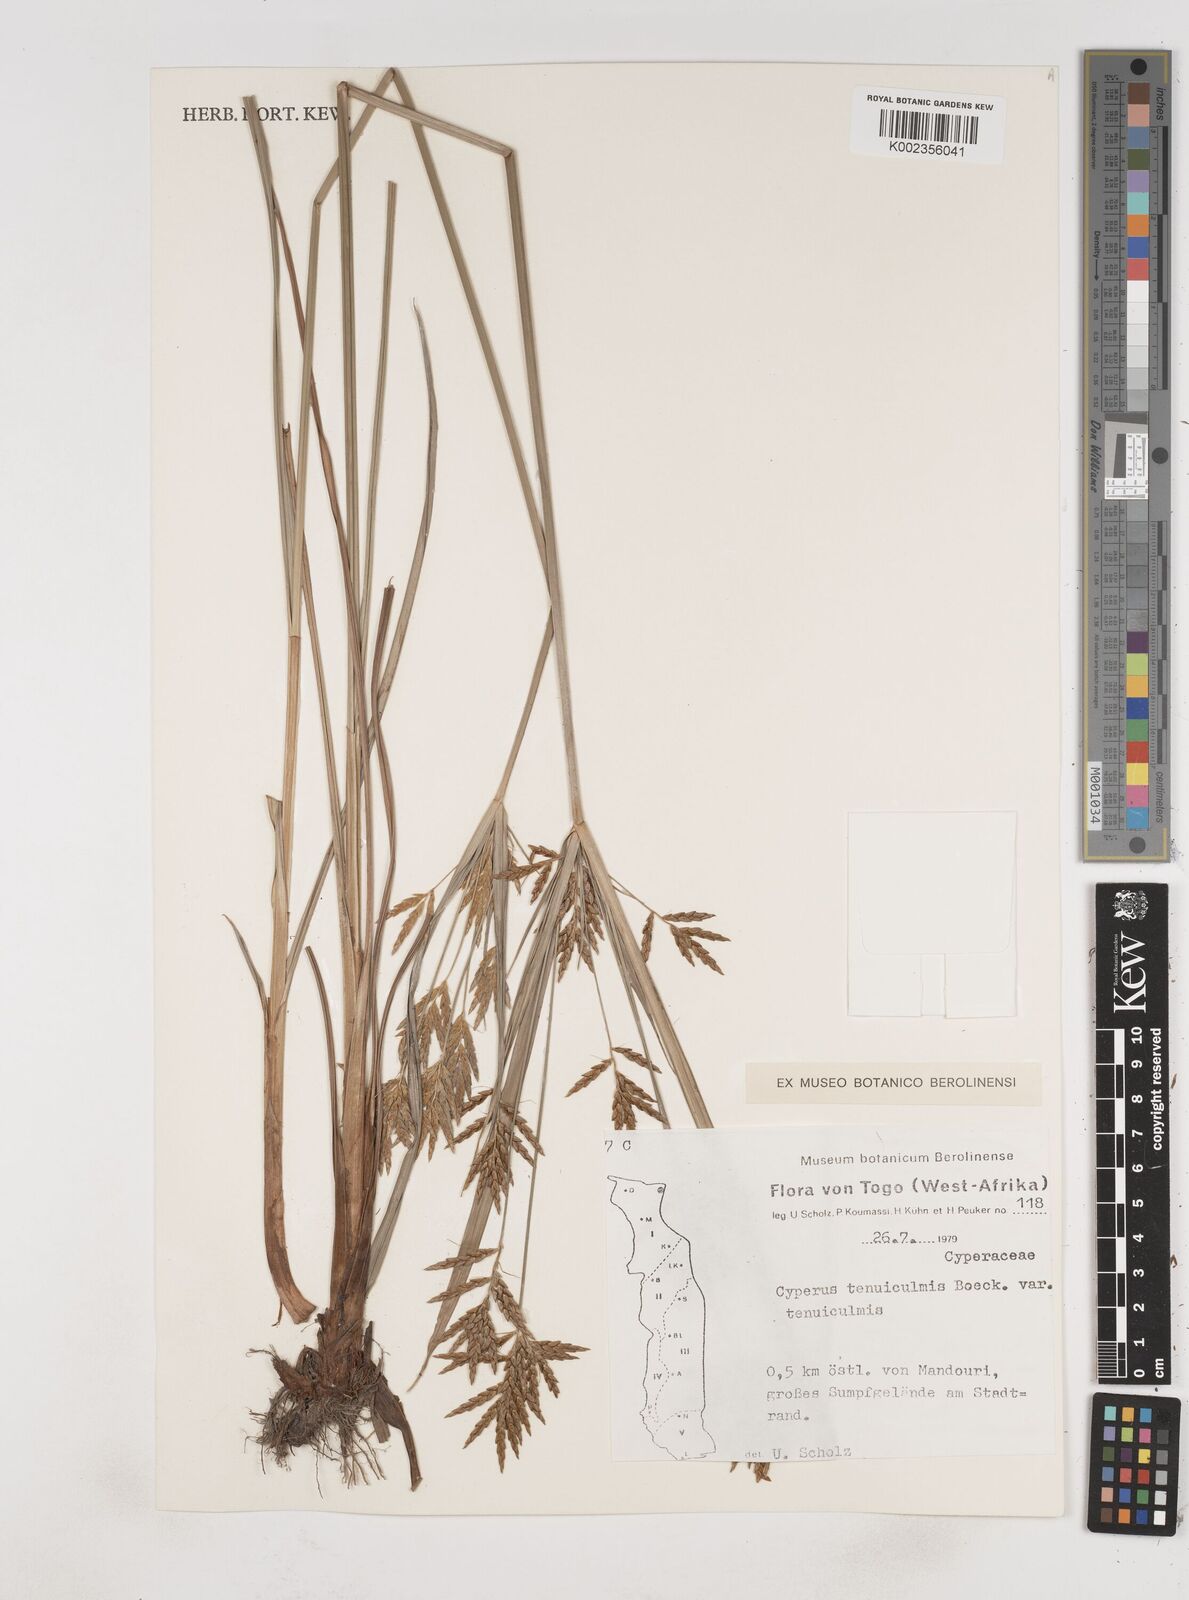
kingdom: Plantae
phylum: Tracheophyta
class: Liliopsida
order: Poales
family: Cyperaceae
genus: Cyperus
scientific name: Cyperus tenuiculmis
